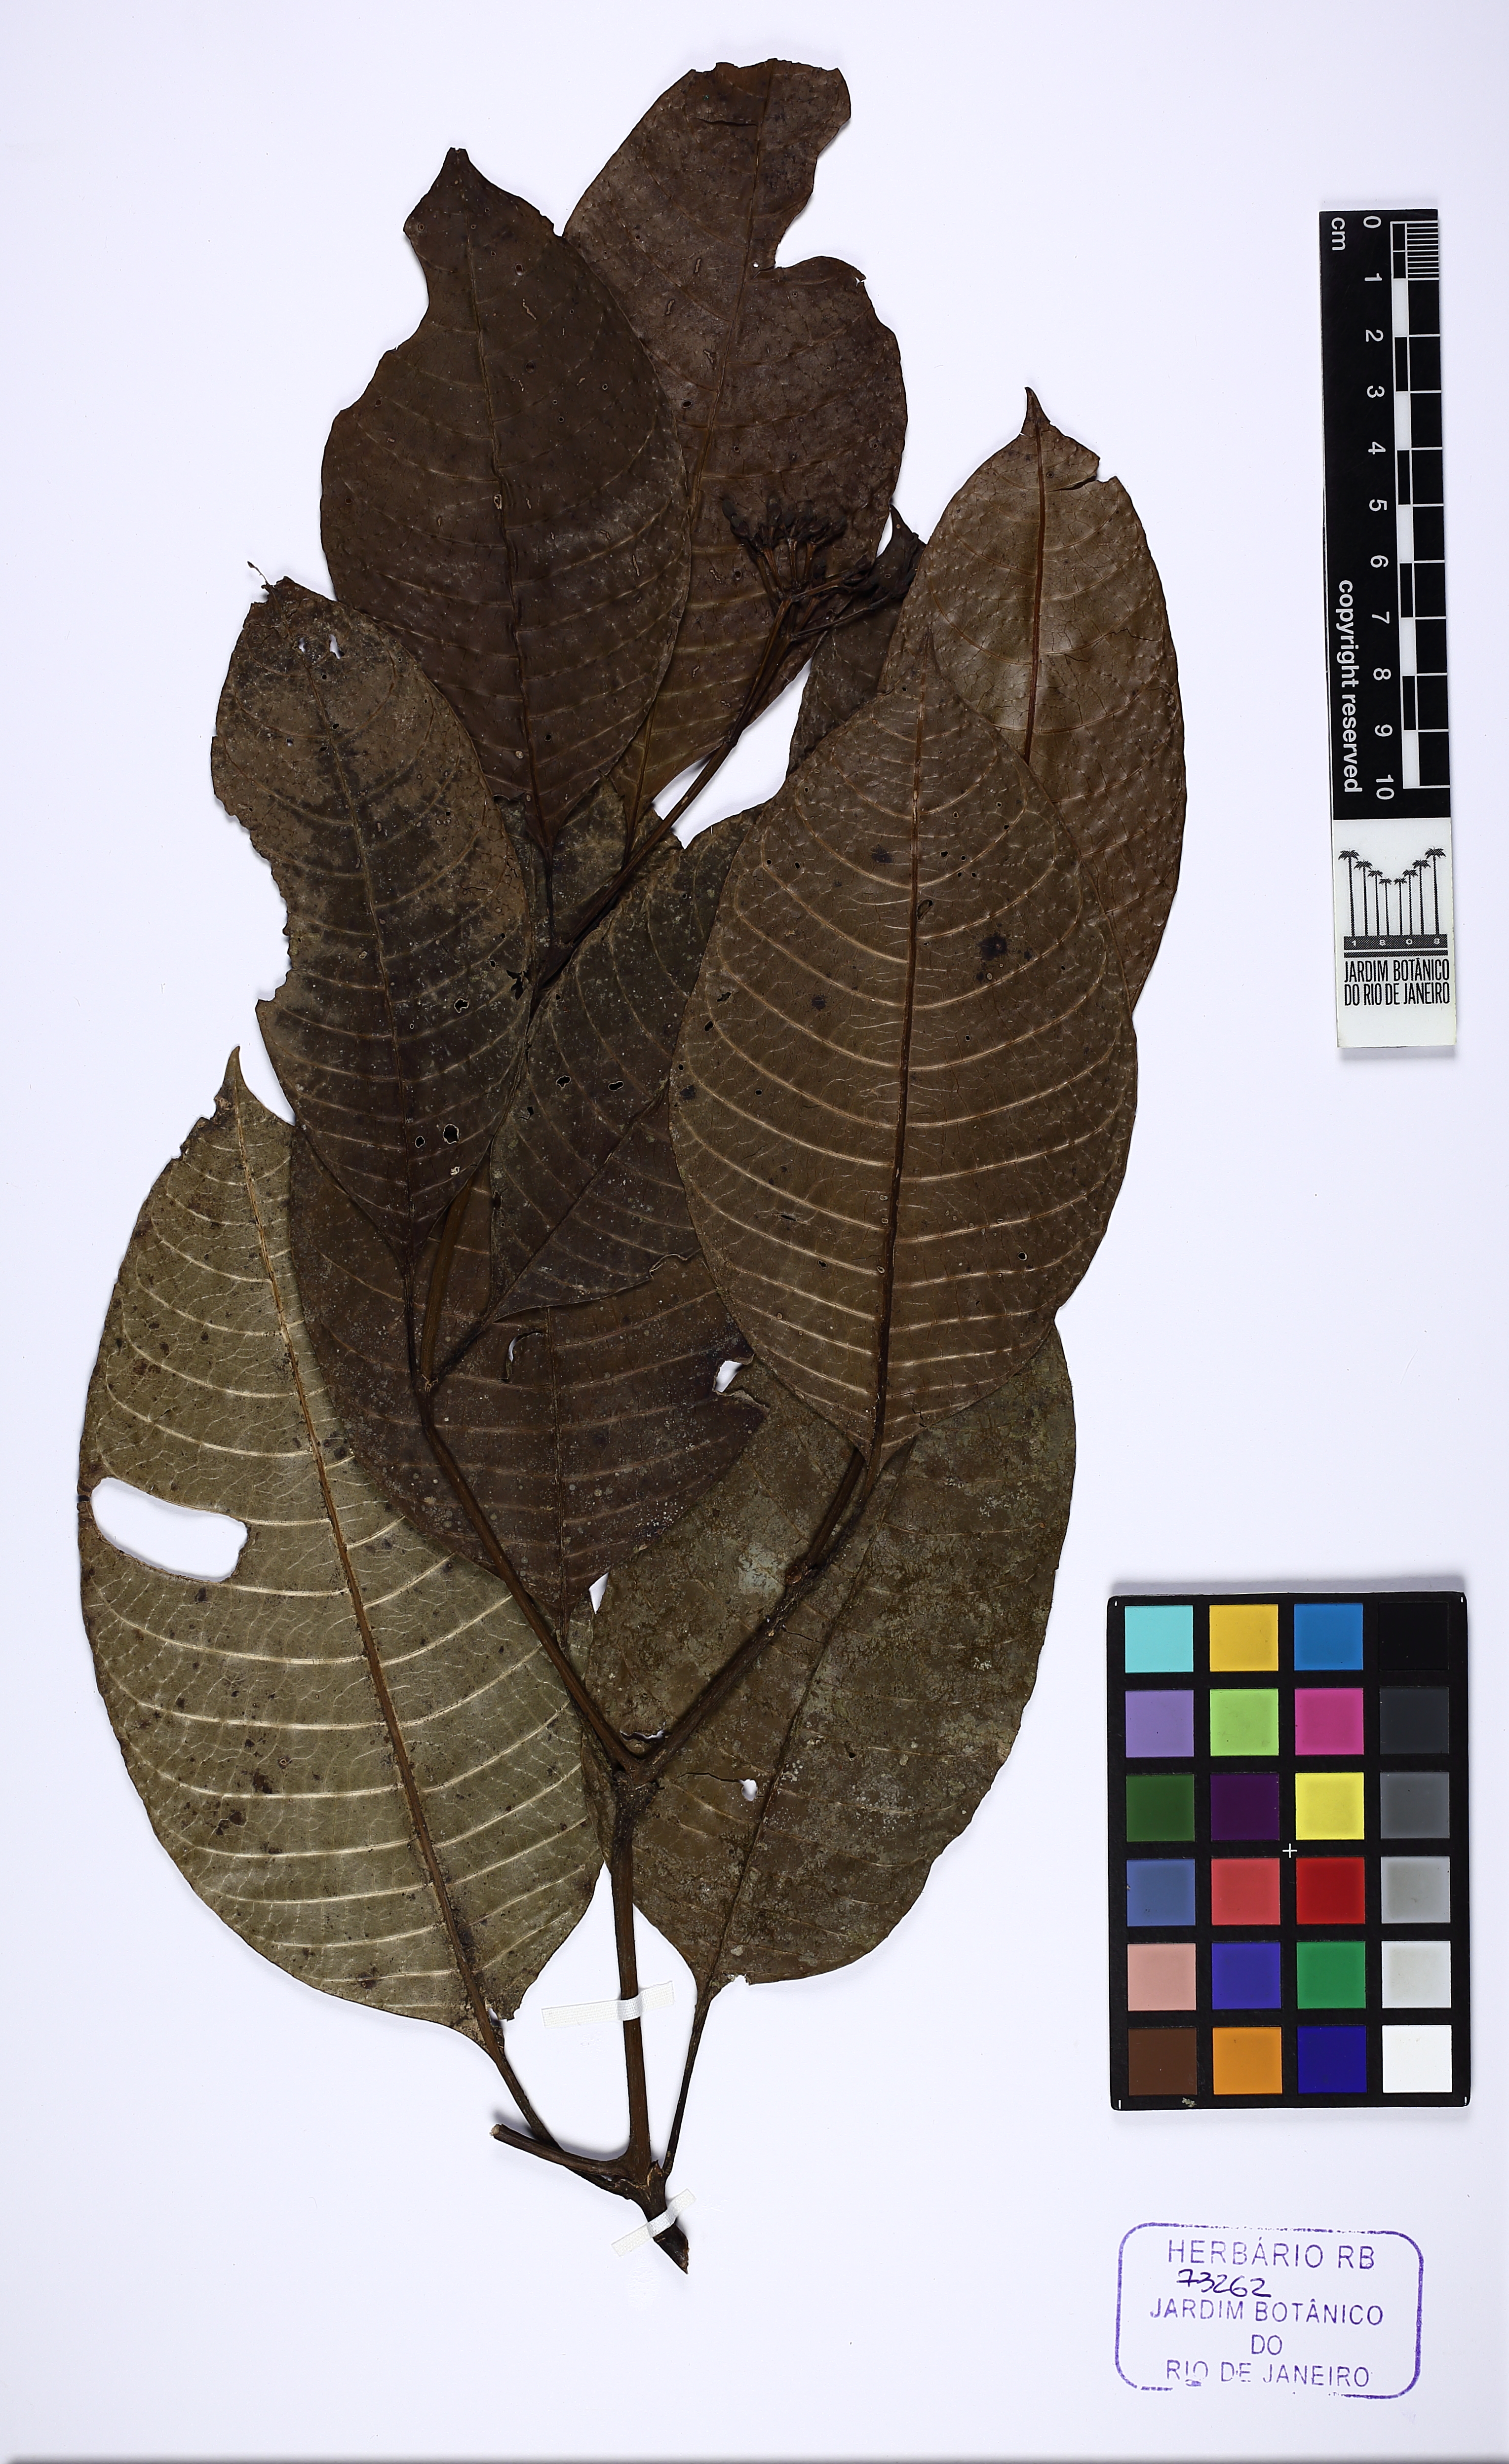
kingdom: Plantae
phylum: Tracheophyta
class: Magnoliopsida
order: Gentianales
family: Rubiaceae
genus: Psychotria
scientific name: Psychotria fluminensis
